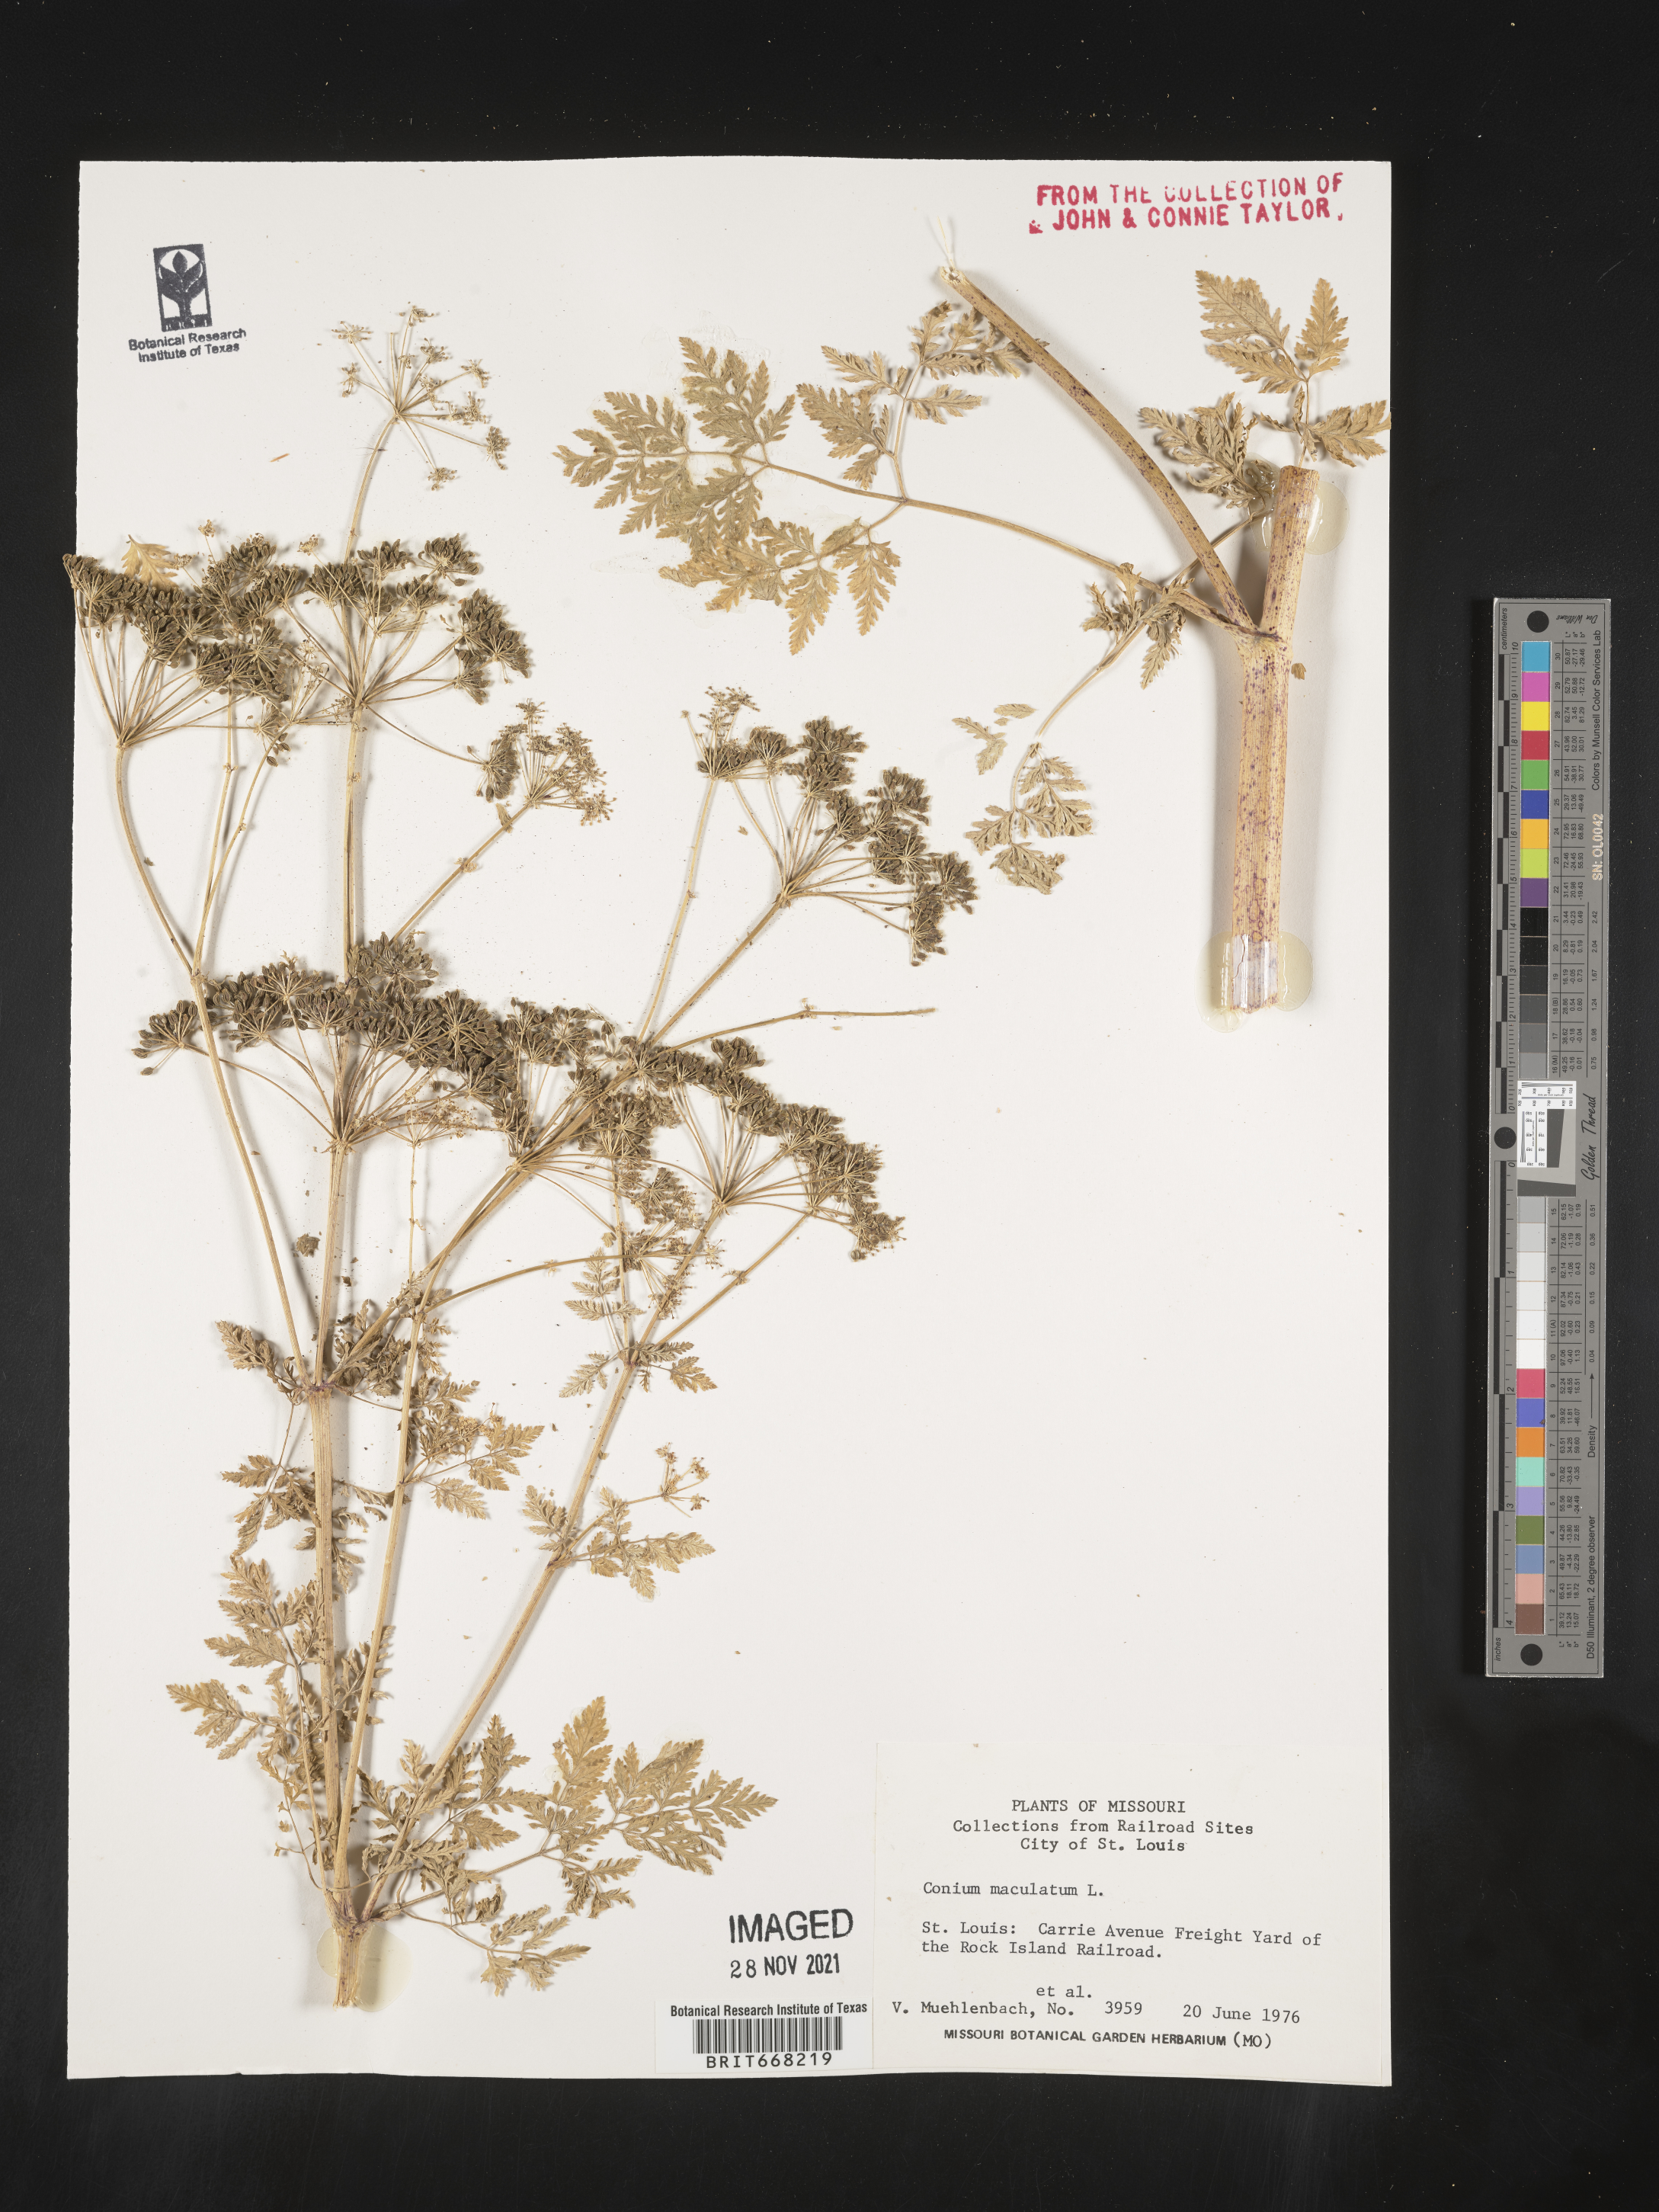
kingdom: Plantae
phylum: Tracheophyta
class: Magnoliopsida
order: Apiales
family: Apiaceae
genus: Conium
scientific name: Conium maculatum
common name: Hemlock
